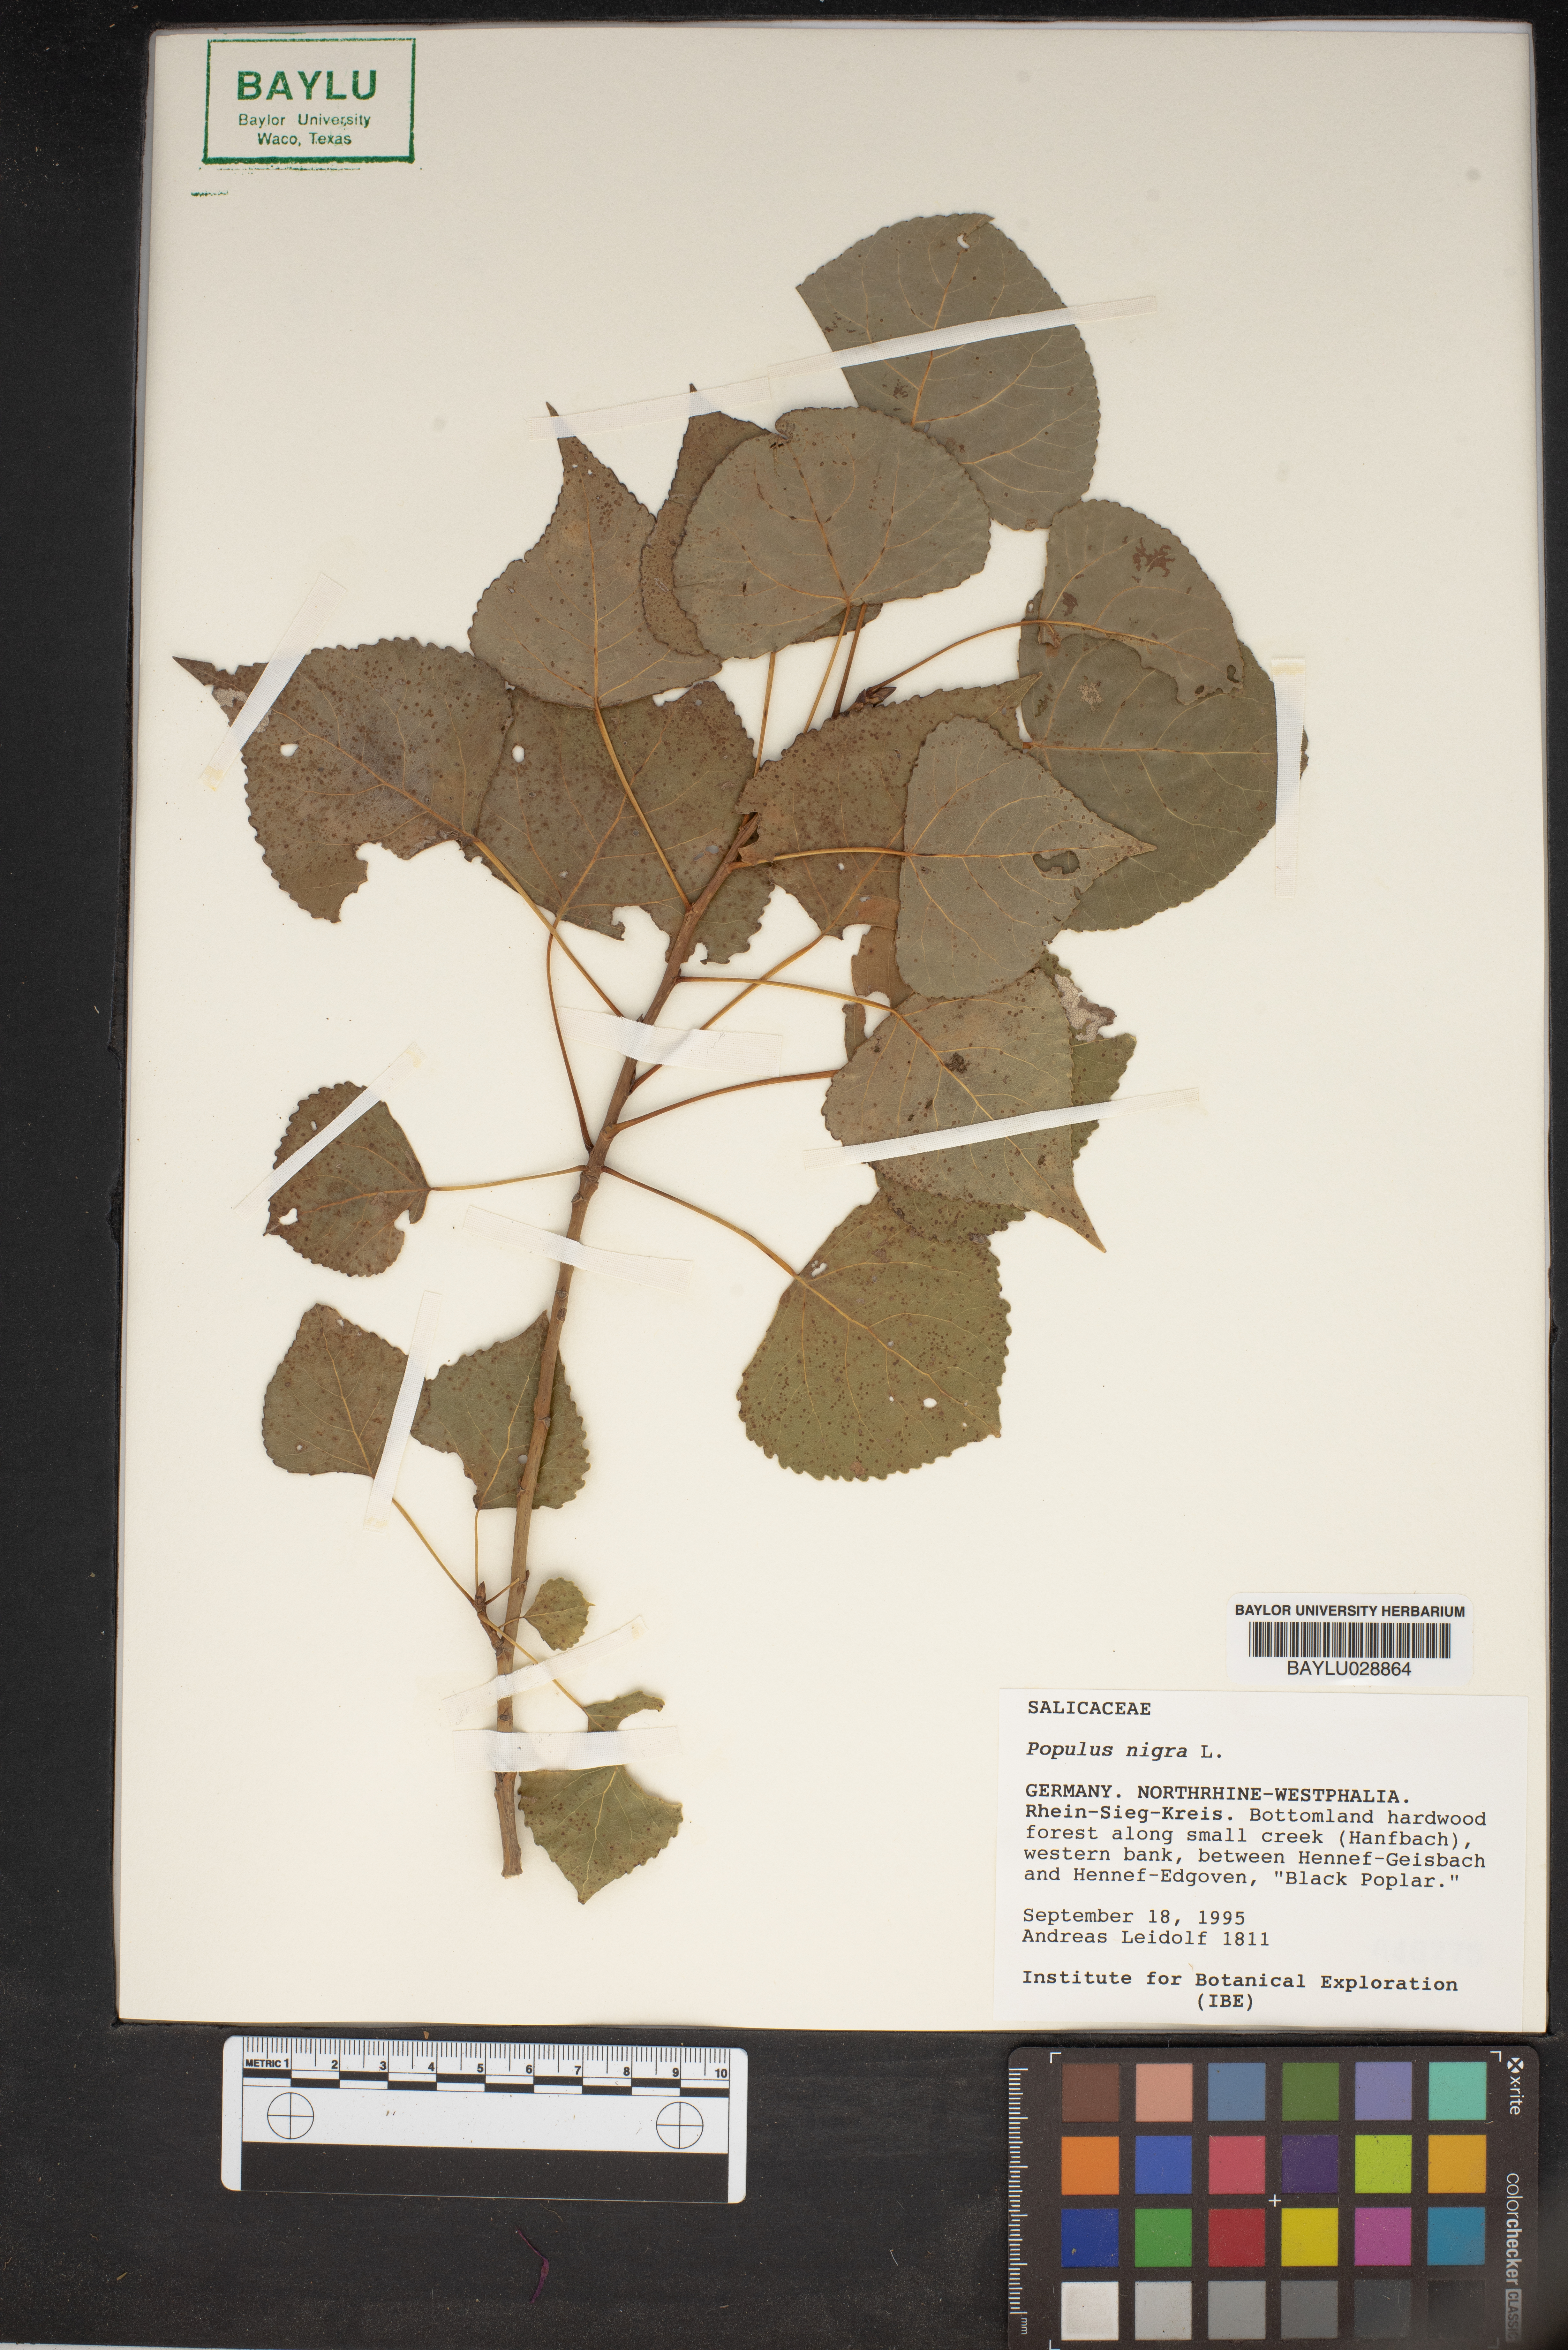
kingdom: Plantae
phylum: Tracheophyta
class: Magnoliopsida
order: Malpighiales
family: Salicaceae
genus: Populus
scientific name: Populus nigra
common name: Black poplar
